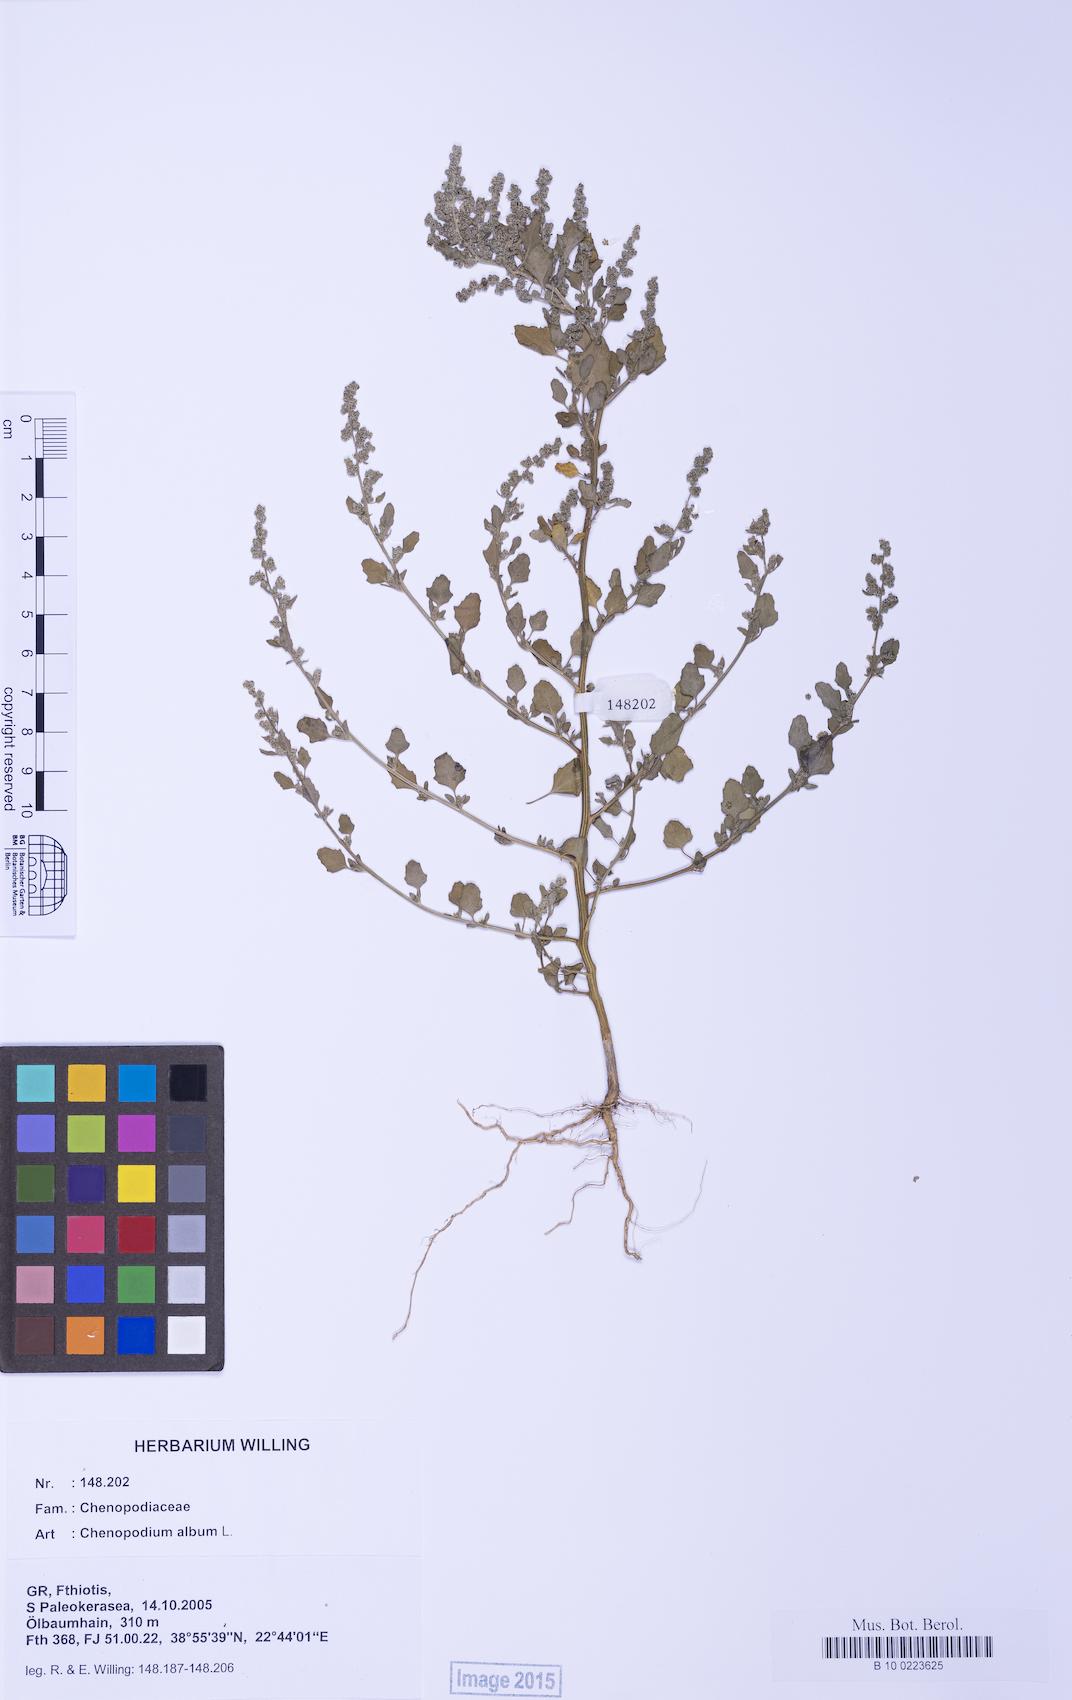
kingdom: Plantae
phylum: Tracheophyta
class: Magnoliopsida
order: Caryophyllales
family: Amaranthaceae
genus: Chenopodium
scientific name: Chenopodium opulifolium
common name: Grey goosefoot
